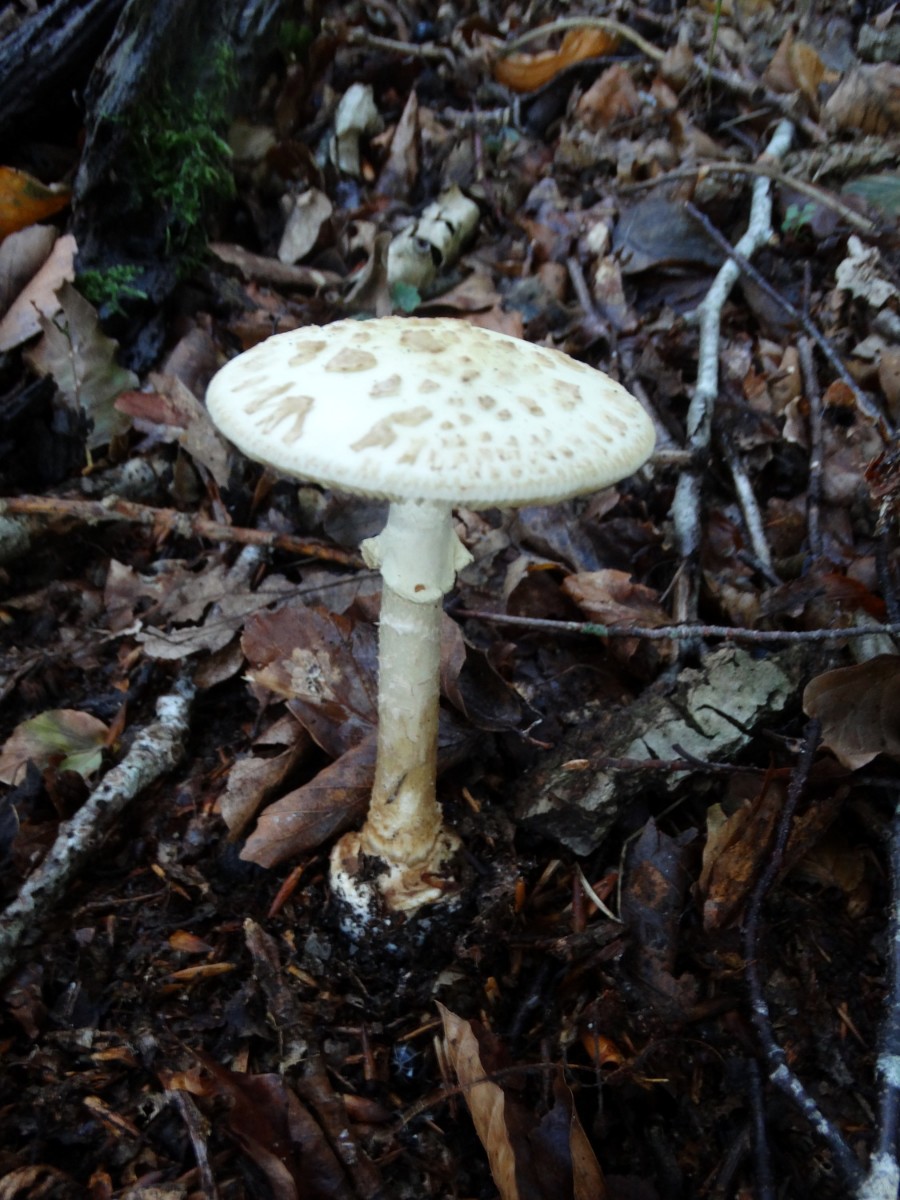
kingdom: Fungi
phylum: Basidiomycota
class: Agaricomycetes
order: Agaricales
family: Amanitaceae
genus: Amanita
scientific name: Amanita citrina
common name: False death-cap
